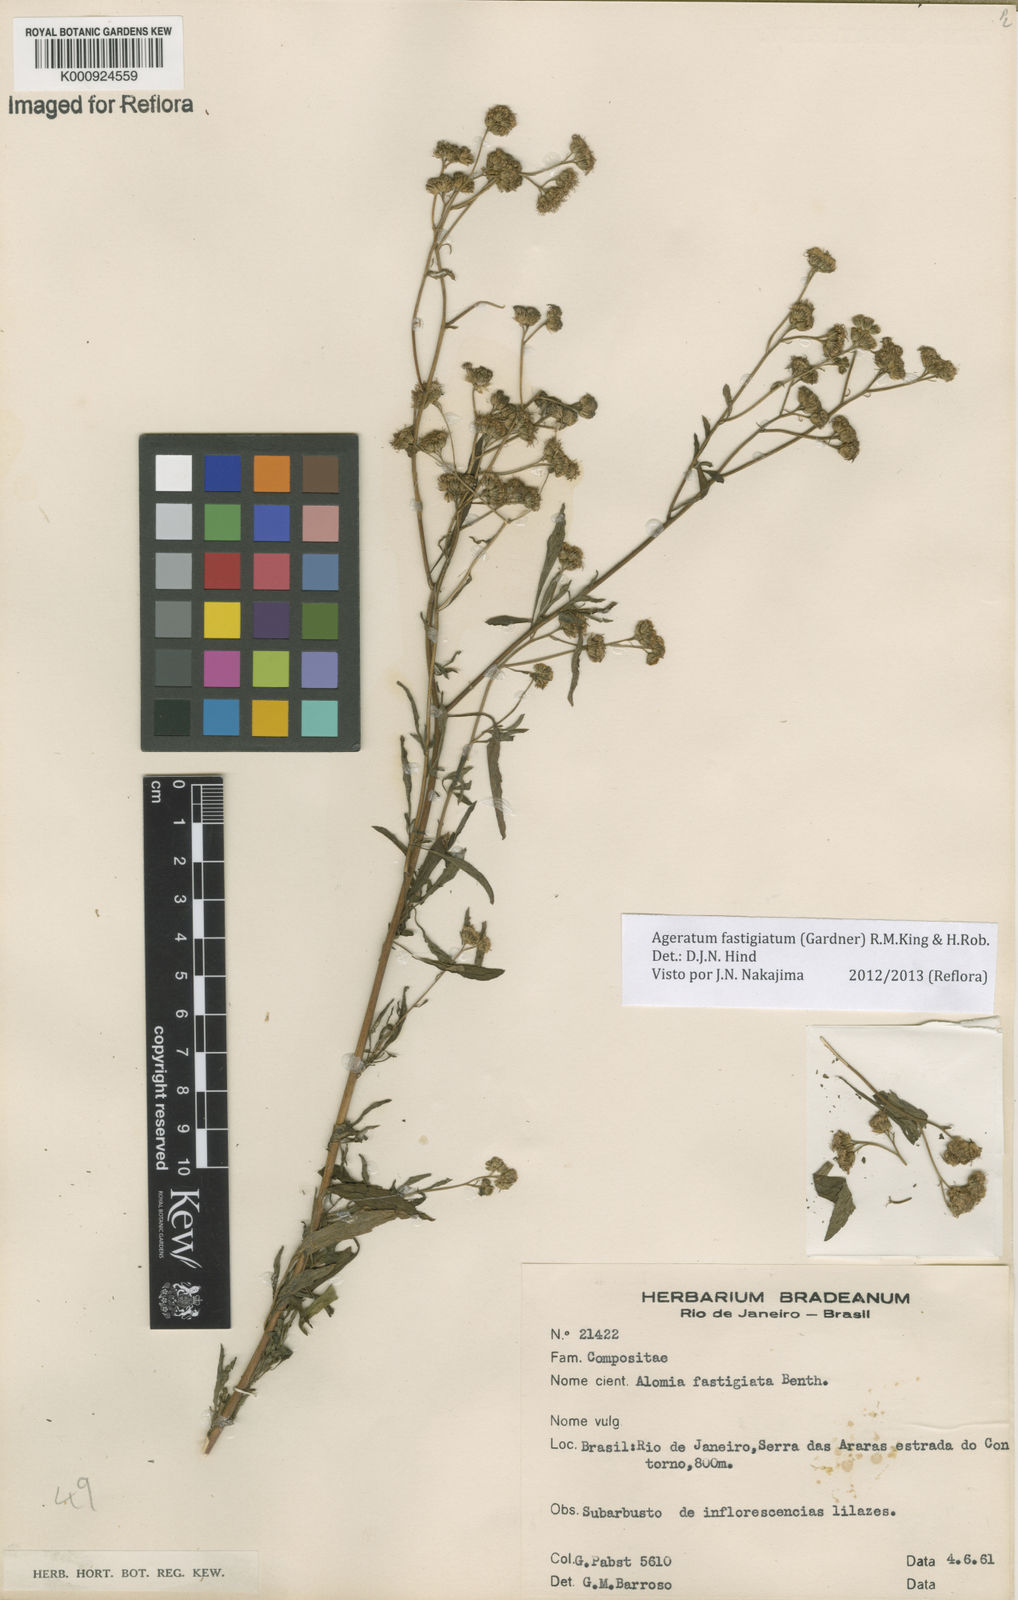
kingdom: Plantae
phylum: Tracheophyta
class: Magnoliopsida
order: Asterales
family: Asteraceae
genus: Ageratum
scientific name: Ageratum fastigiatum
